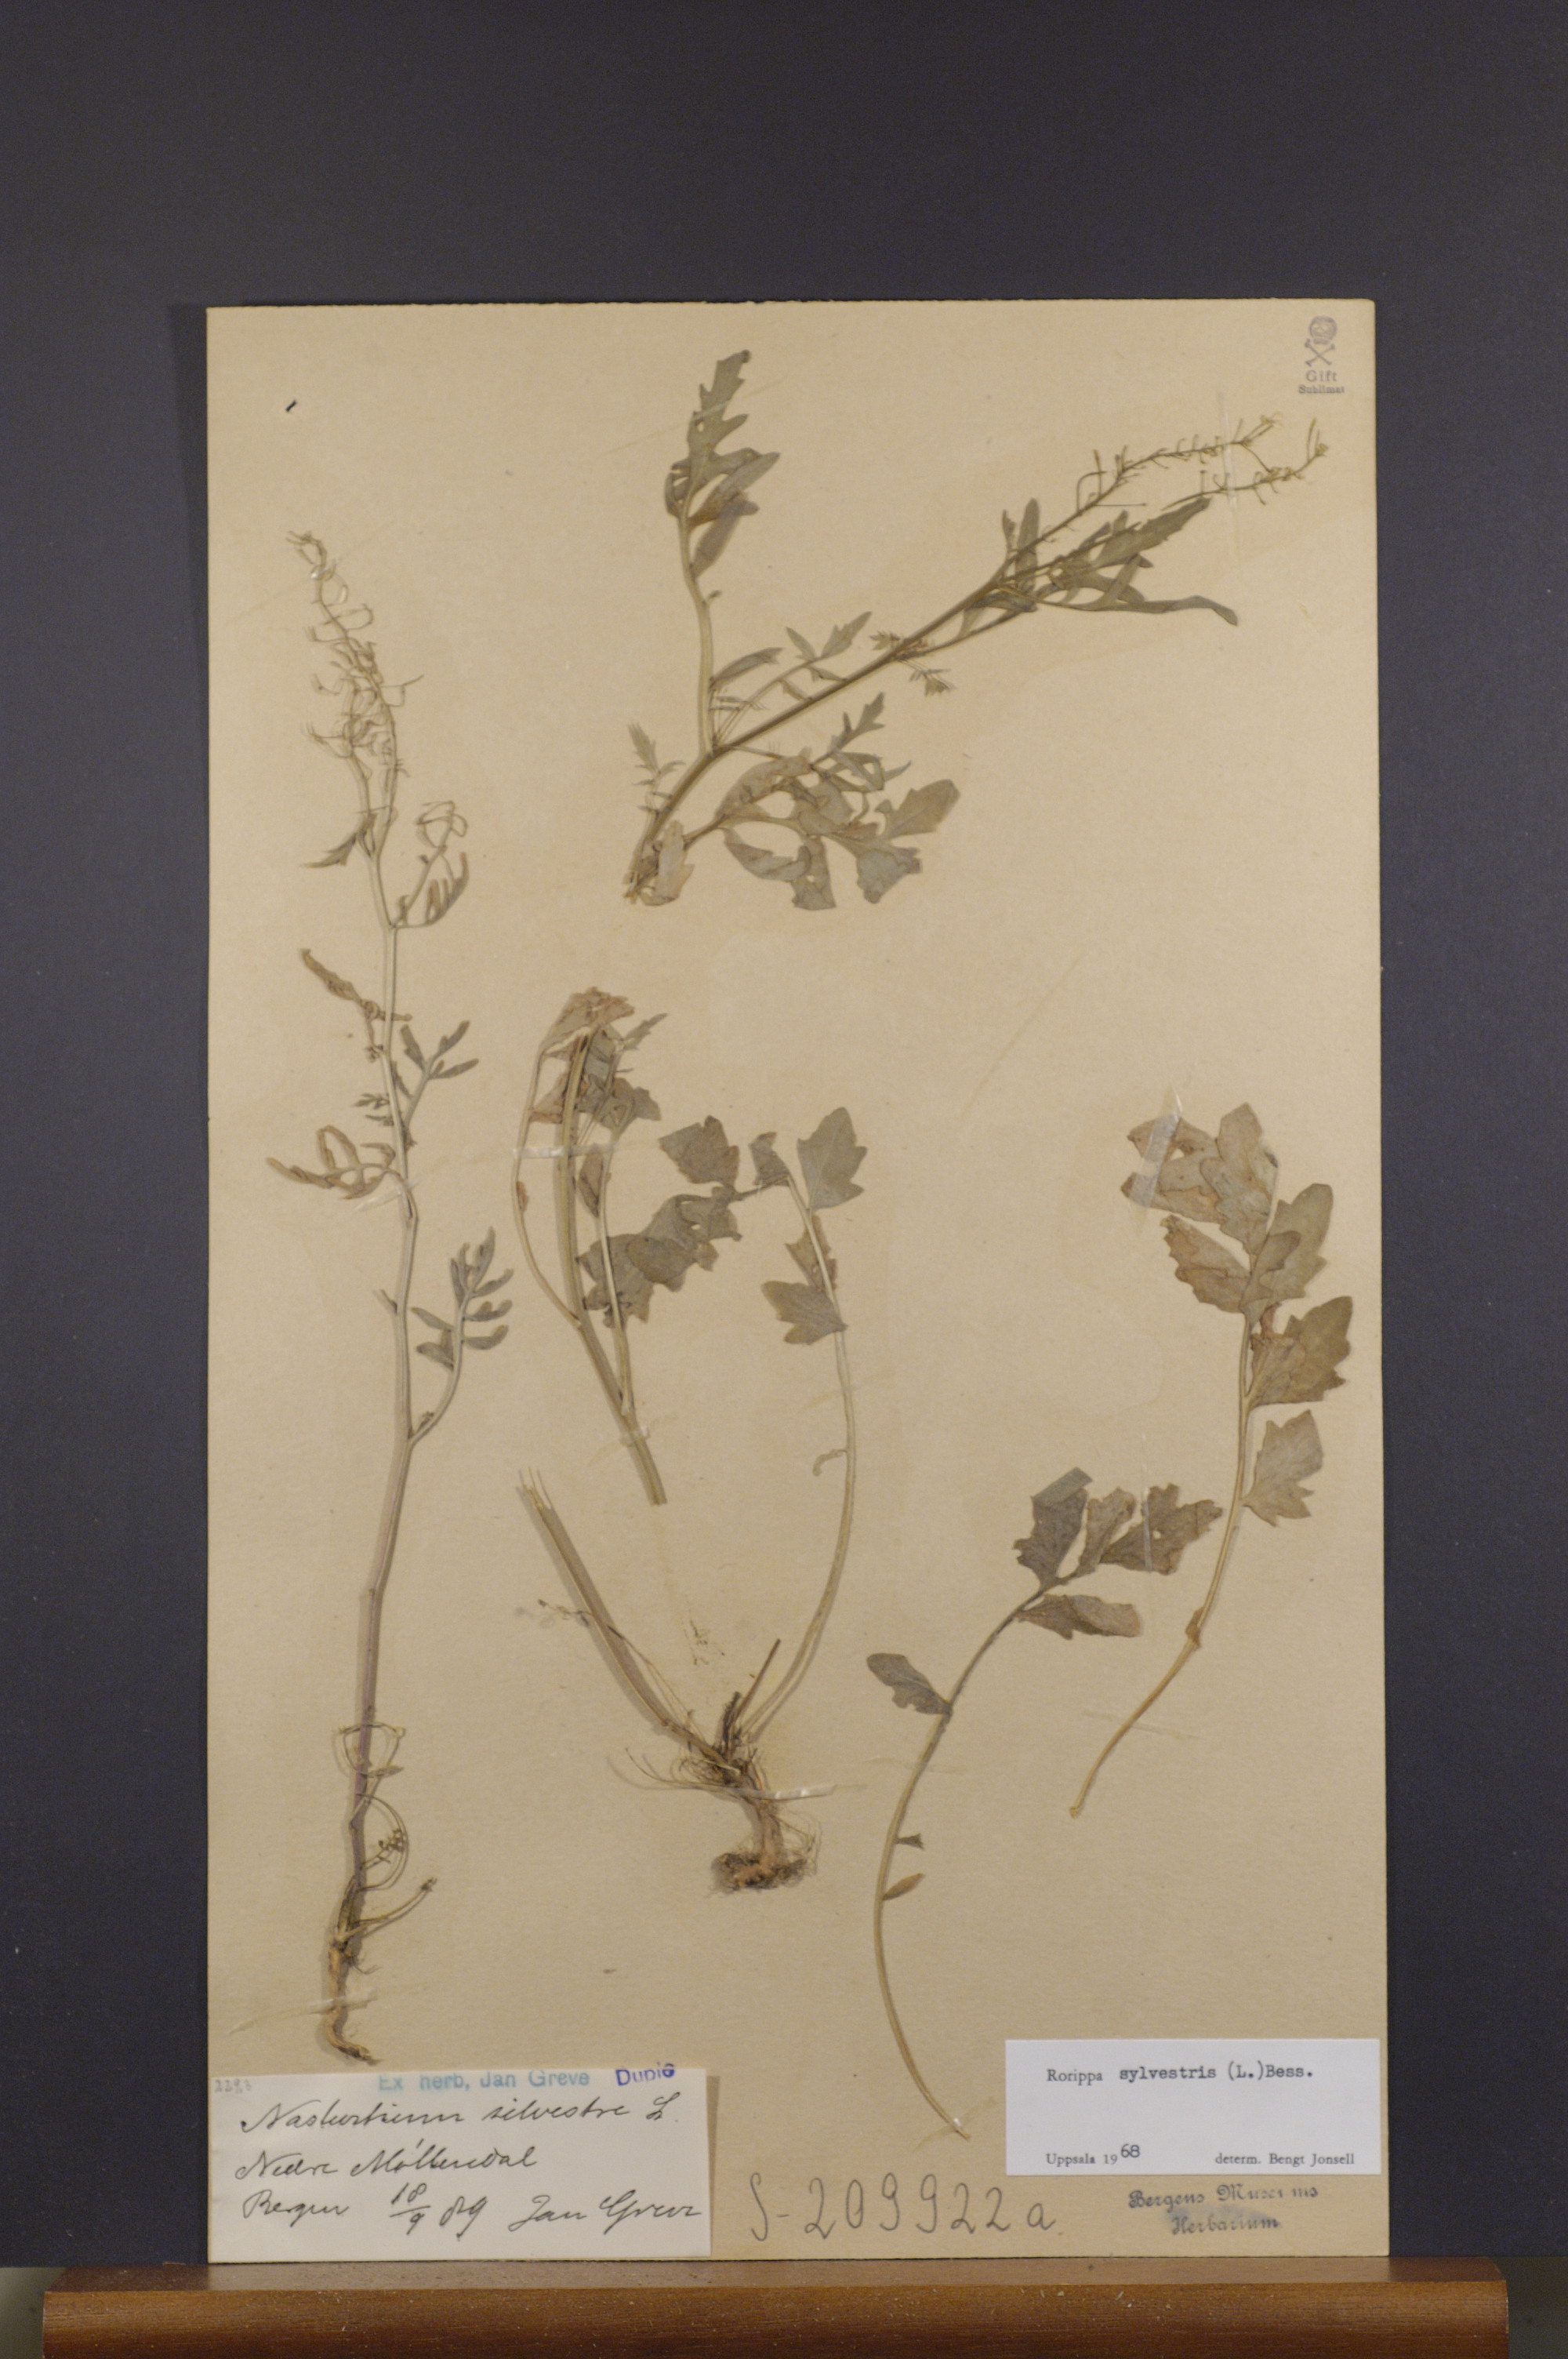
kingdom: Plantae
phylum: Tracheophyta
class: Magnoliopsida
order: Brassicales
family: Brassicaceae
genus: Rorippa
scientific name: Rorippa sylvestris
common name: Creeping yellowcress
